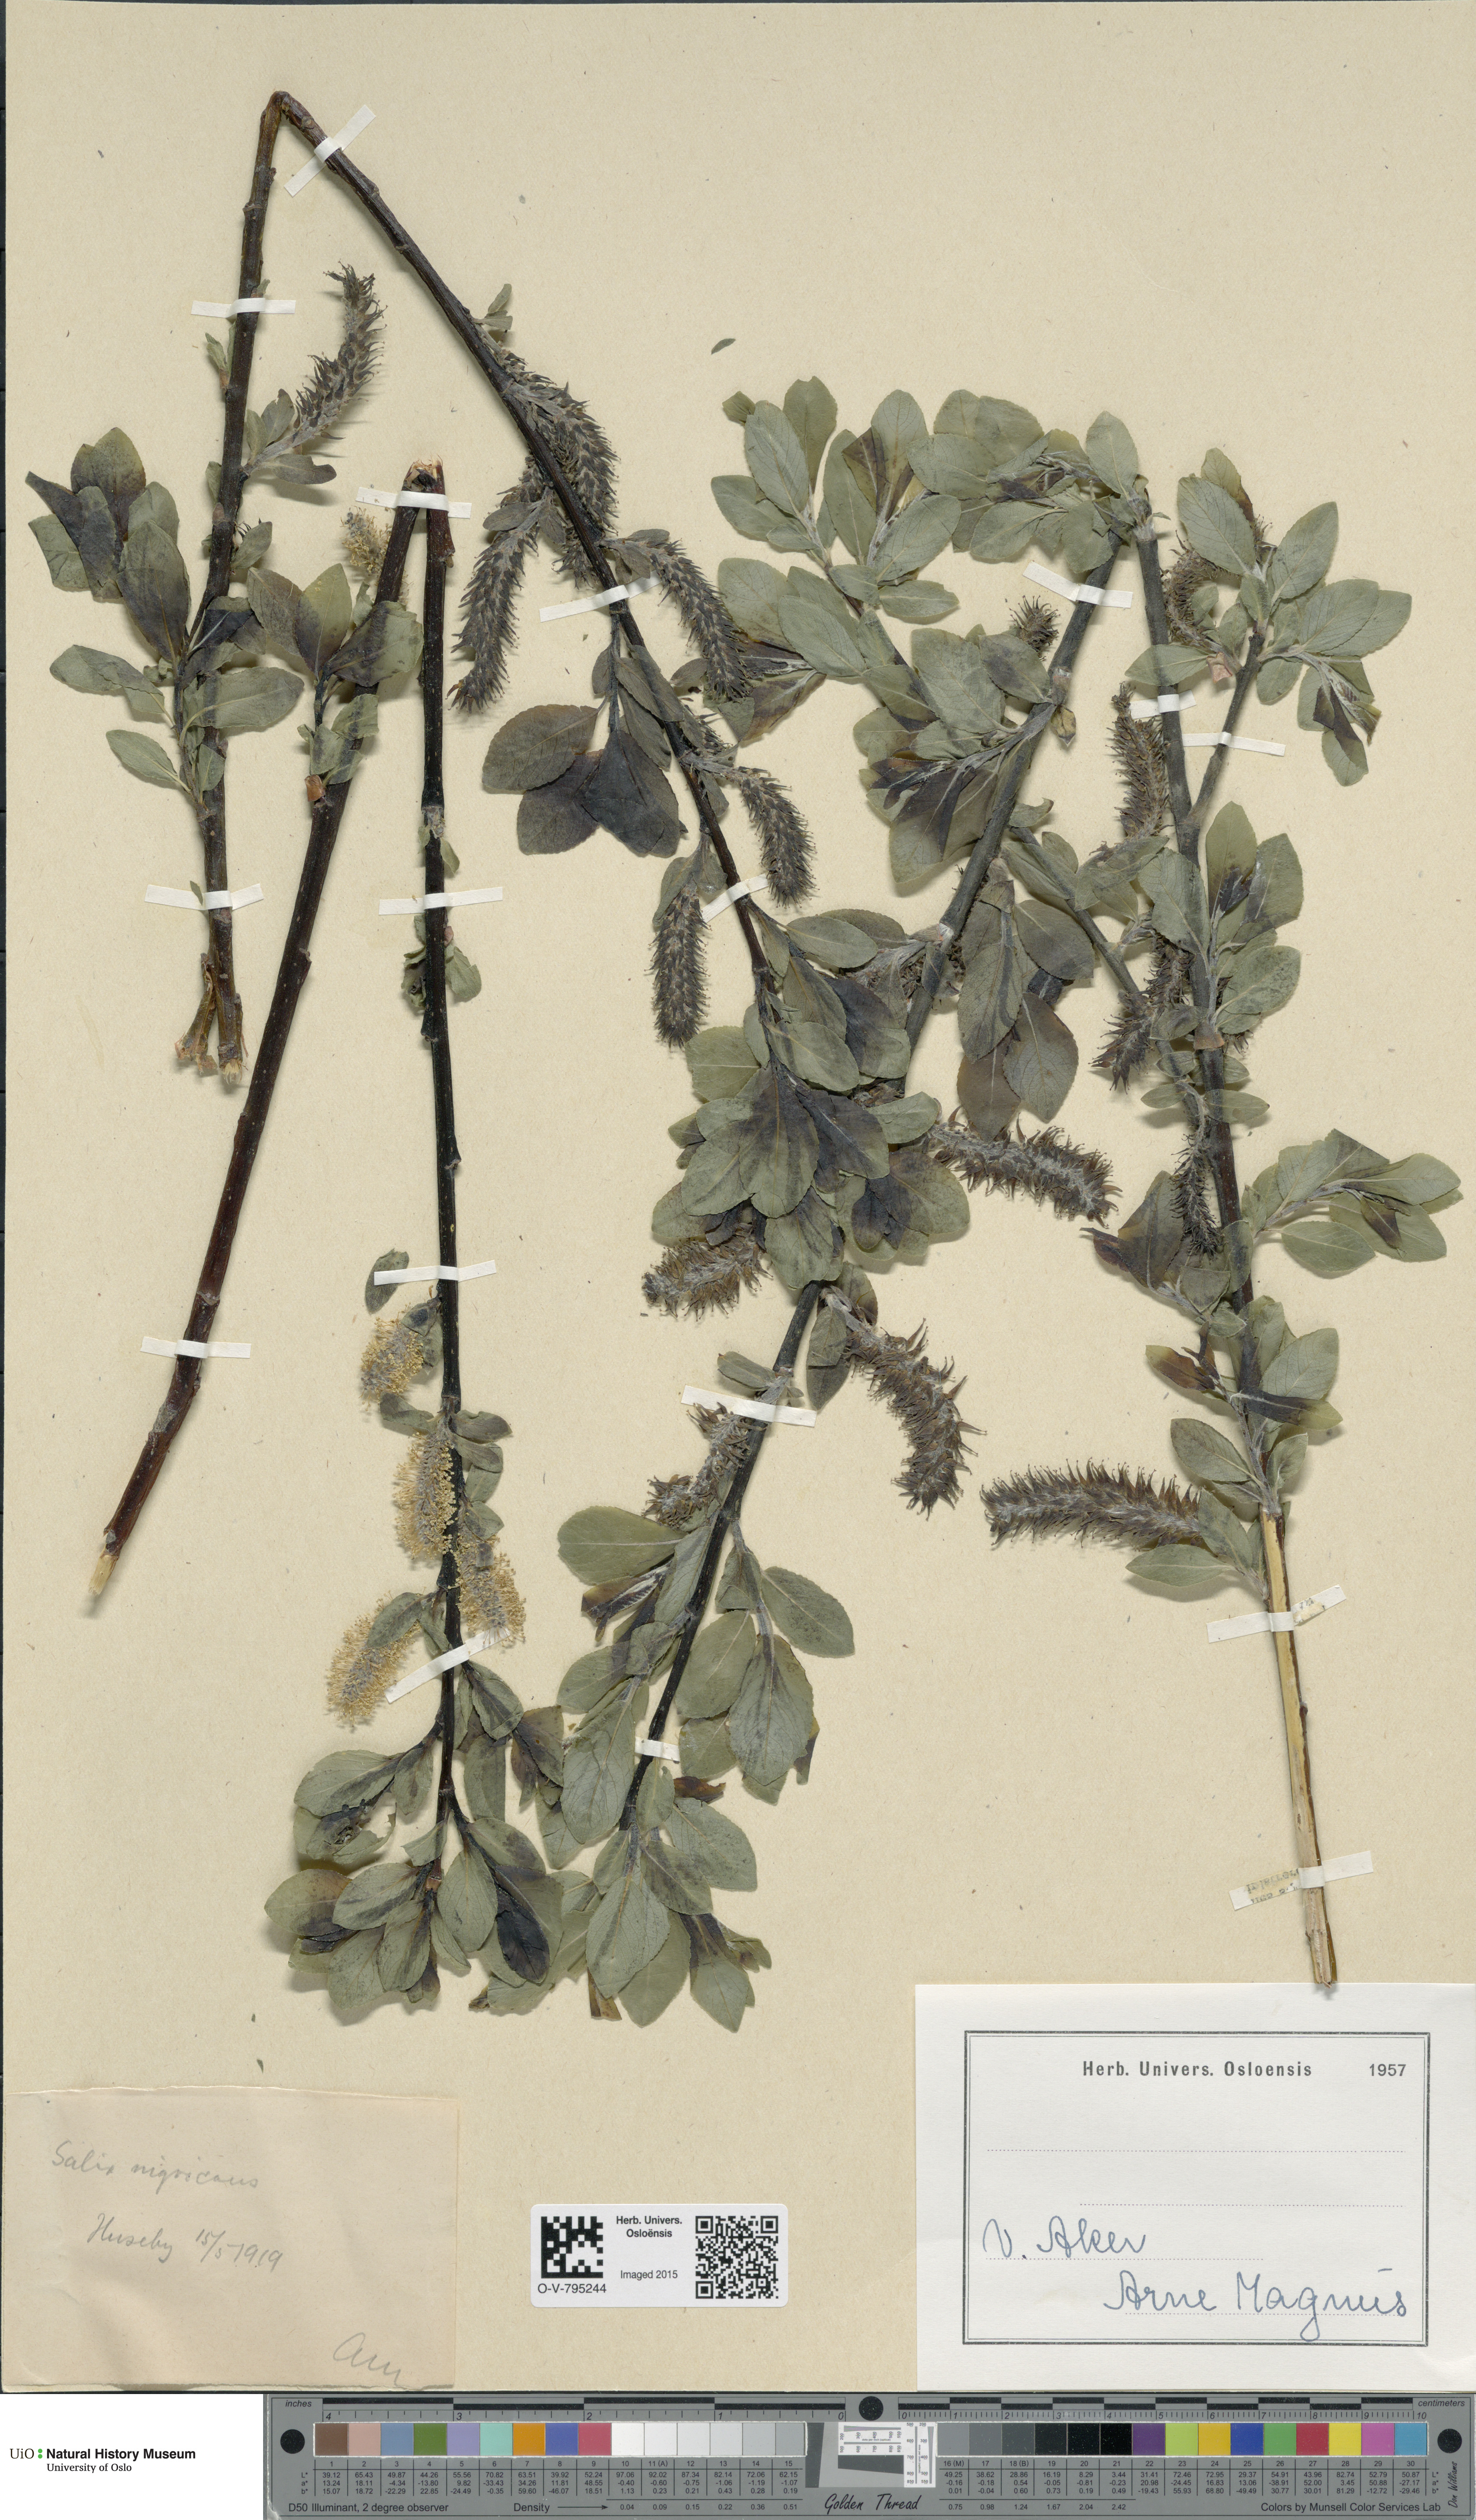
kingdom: Plantae
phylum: Tracheophyta
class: Magnoliopsida
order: Malpighiales
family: Salicaceae
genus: Salix
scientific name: Salix myrsinifolia
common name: Dark-leaved willow
